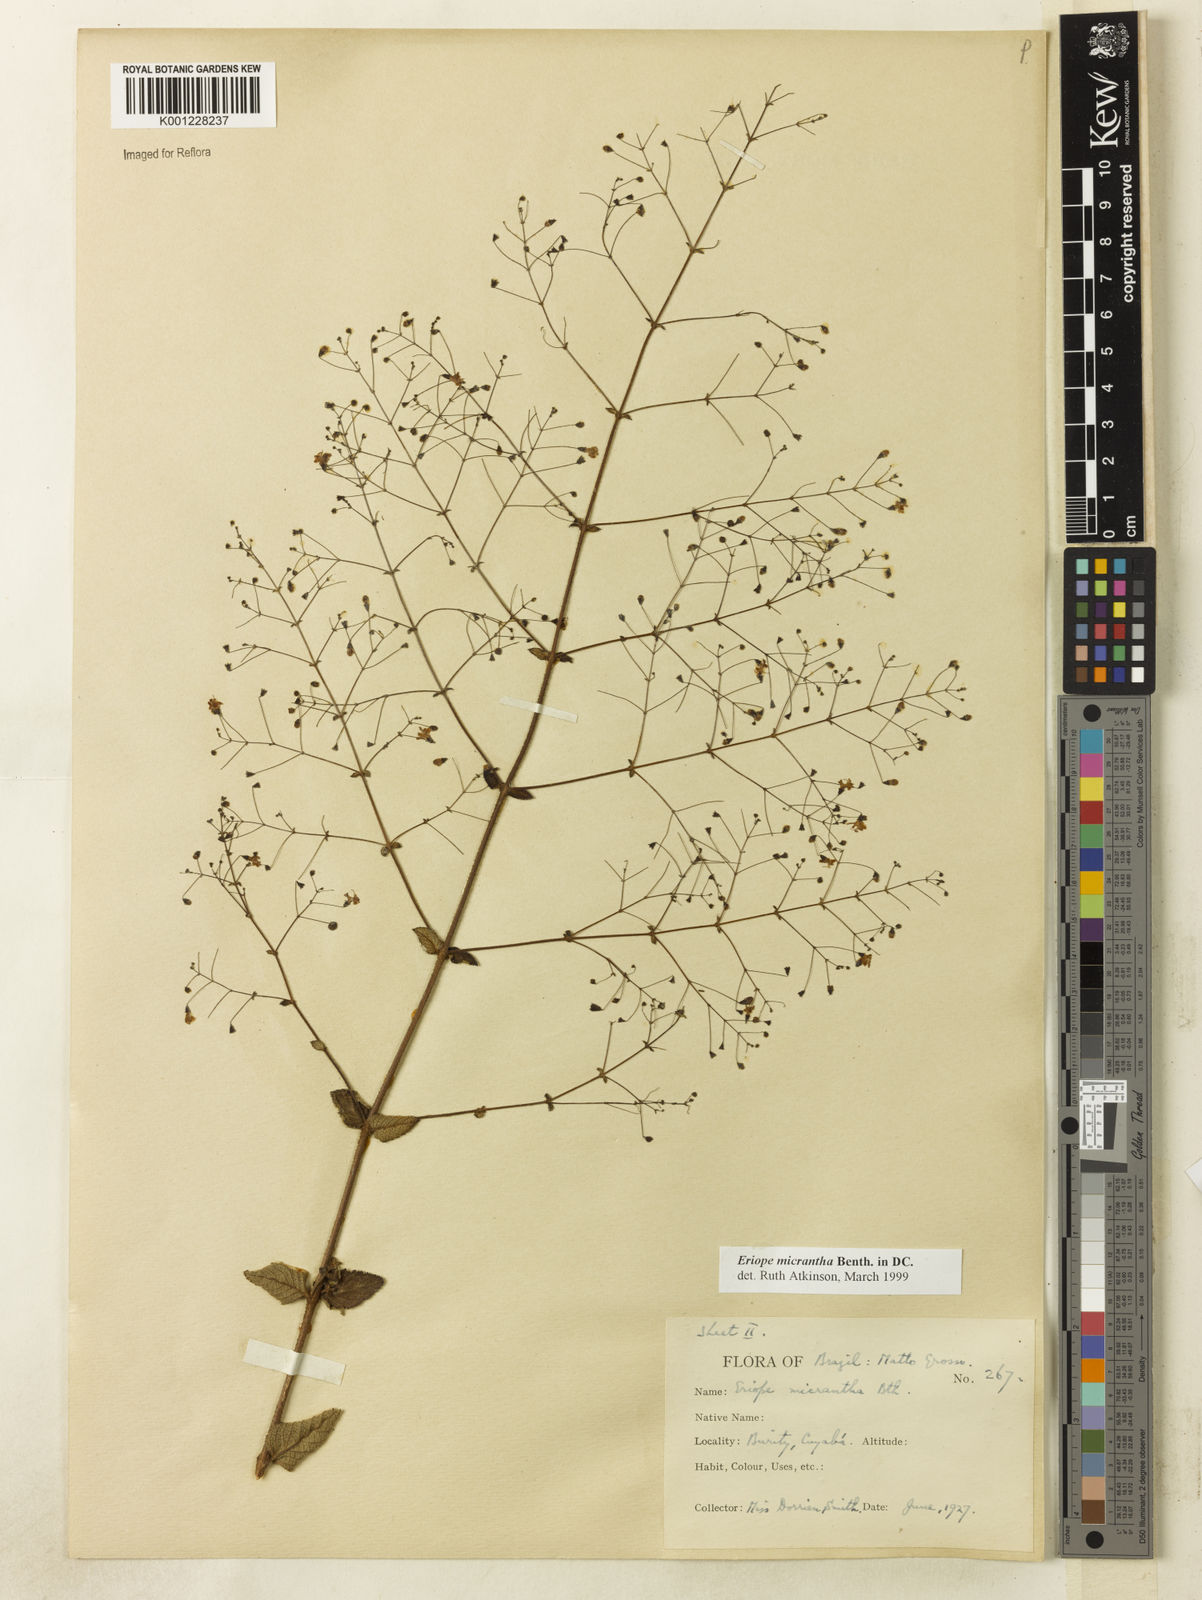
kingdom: Plantae
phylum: Tracheophyta
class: Magnoliopsida
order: Lamiales
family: Lamiaceae
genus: Hypenia
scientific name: Hypenia micrantha
